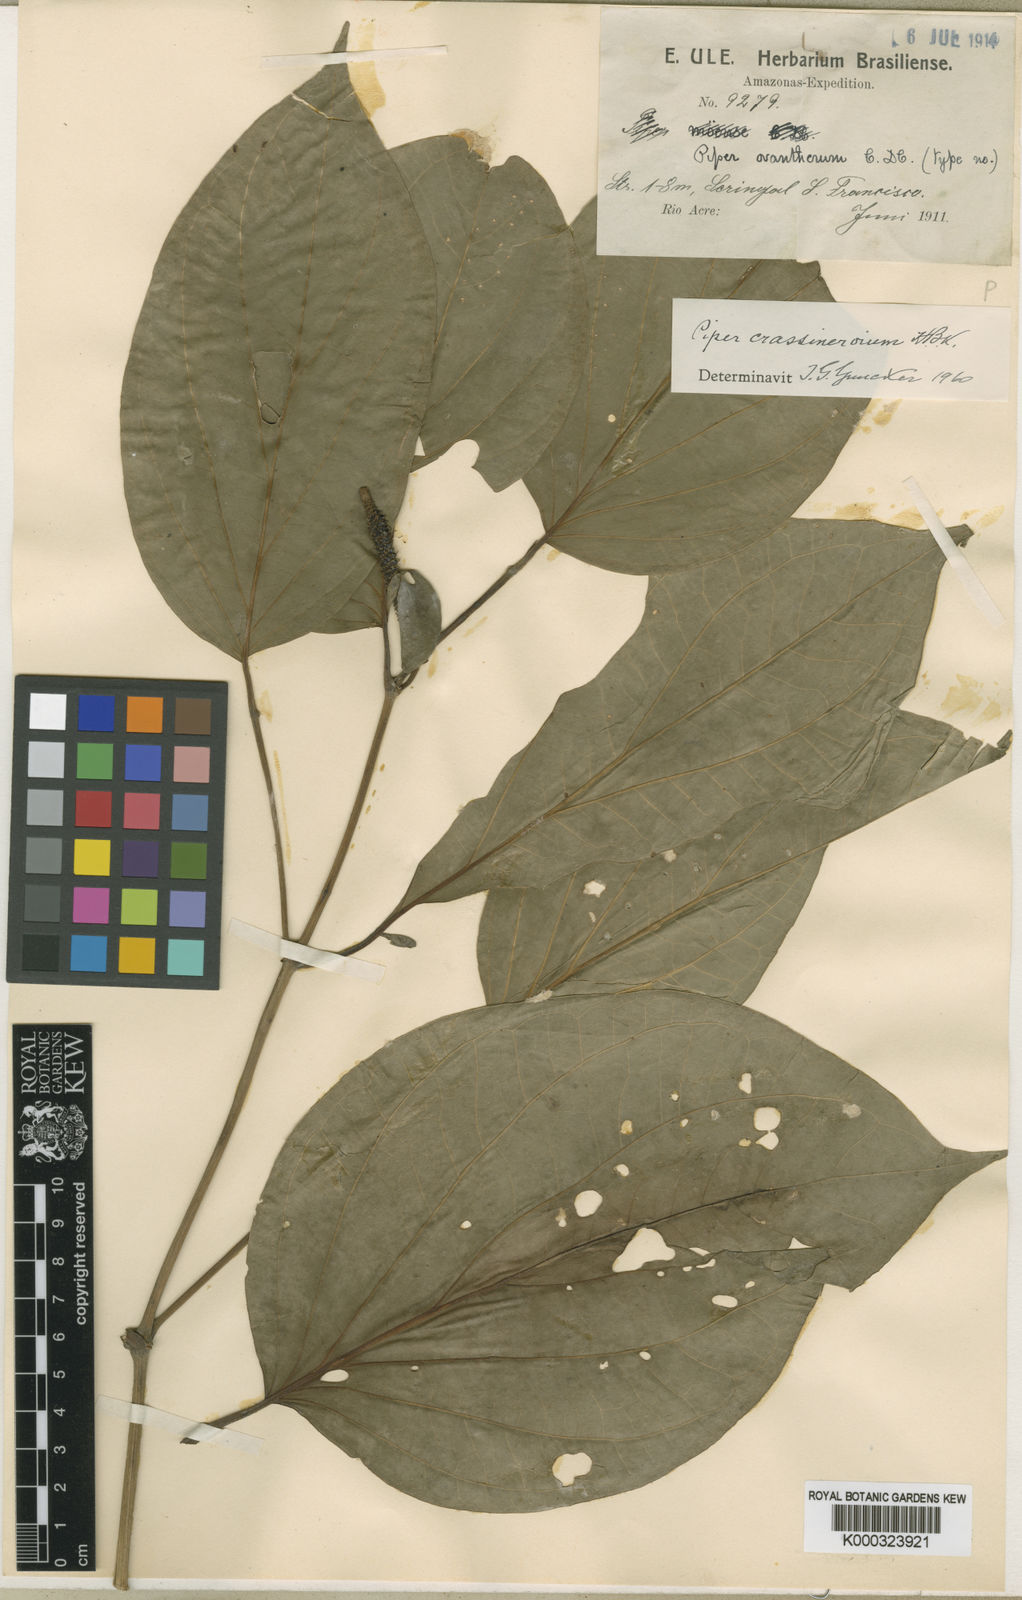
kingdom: Plantae
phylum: Tracheophyta
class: Magnoliopsida
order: Piperales
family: Piperaceae
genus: Piper
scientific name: Piper
